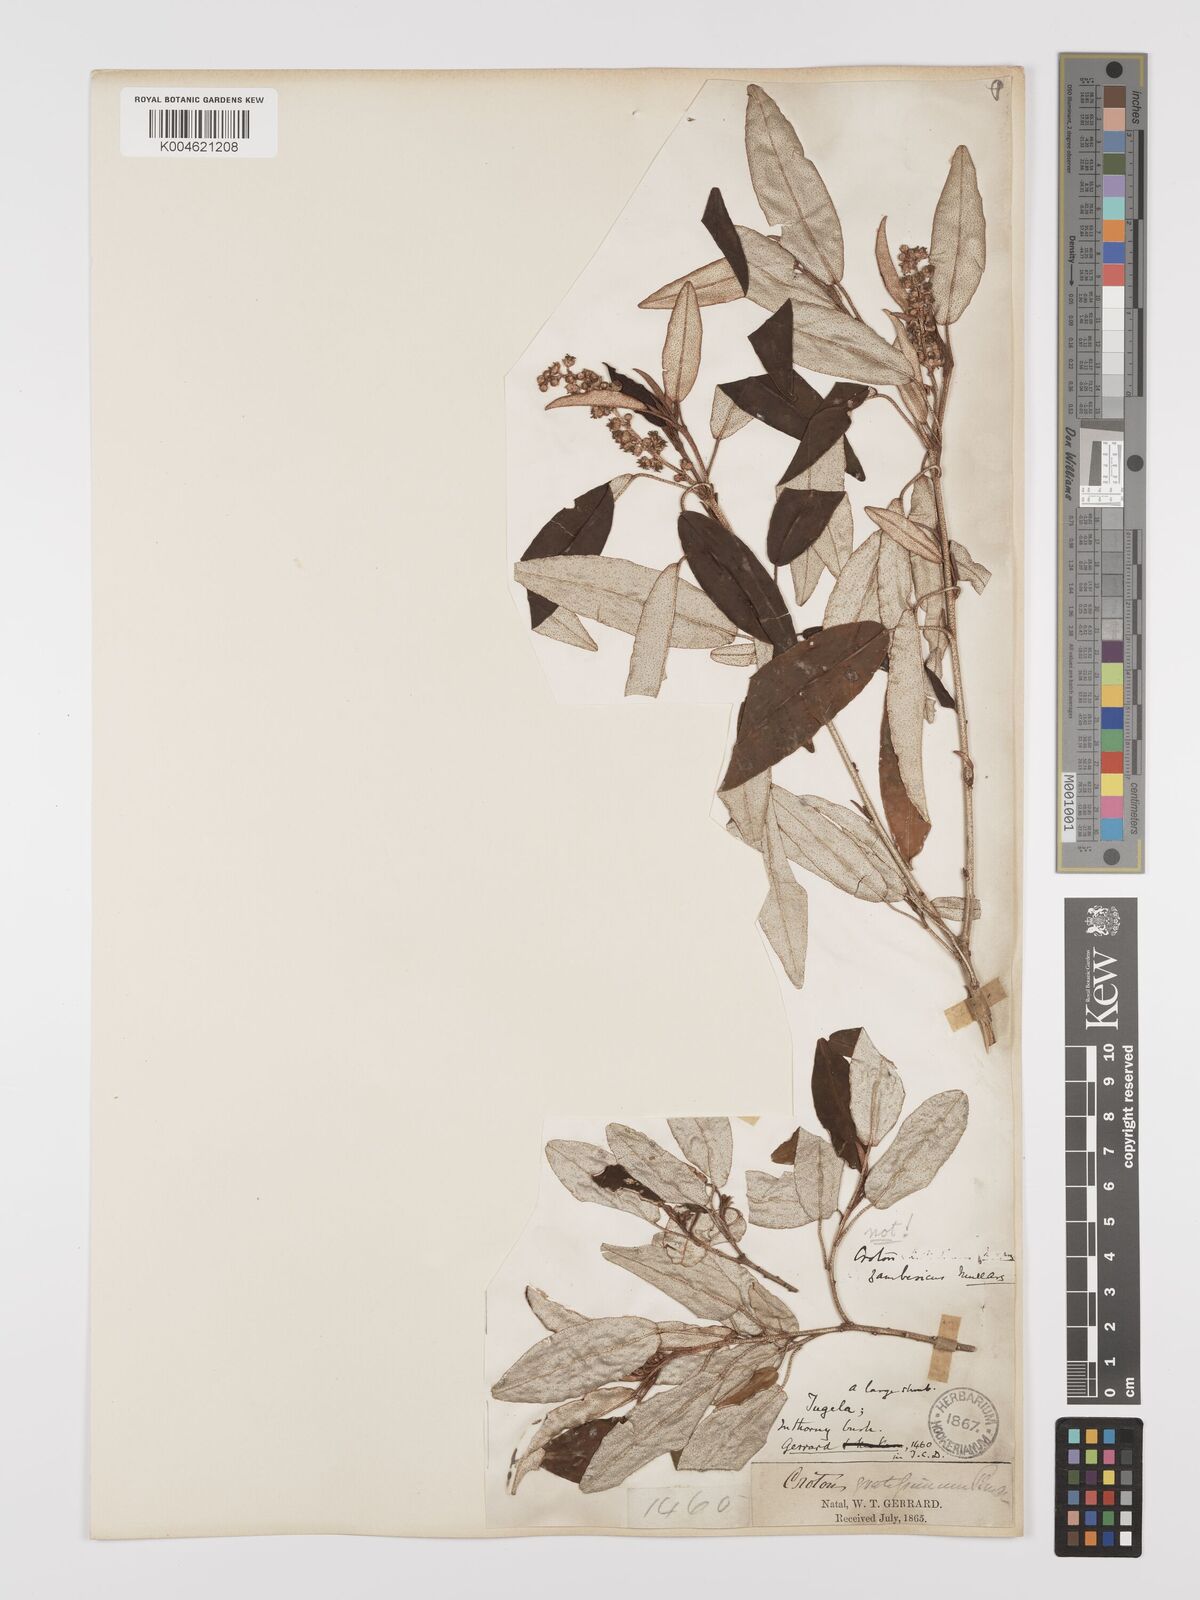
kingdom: Plantae
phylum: Tracheophyta
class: Magnoliopsida
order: Malpighiales
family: Euphorbiaceae
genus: Croton
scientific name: Croton gratissimus
